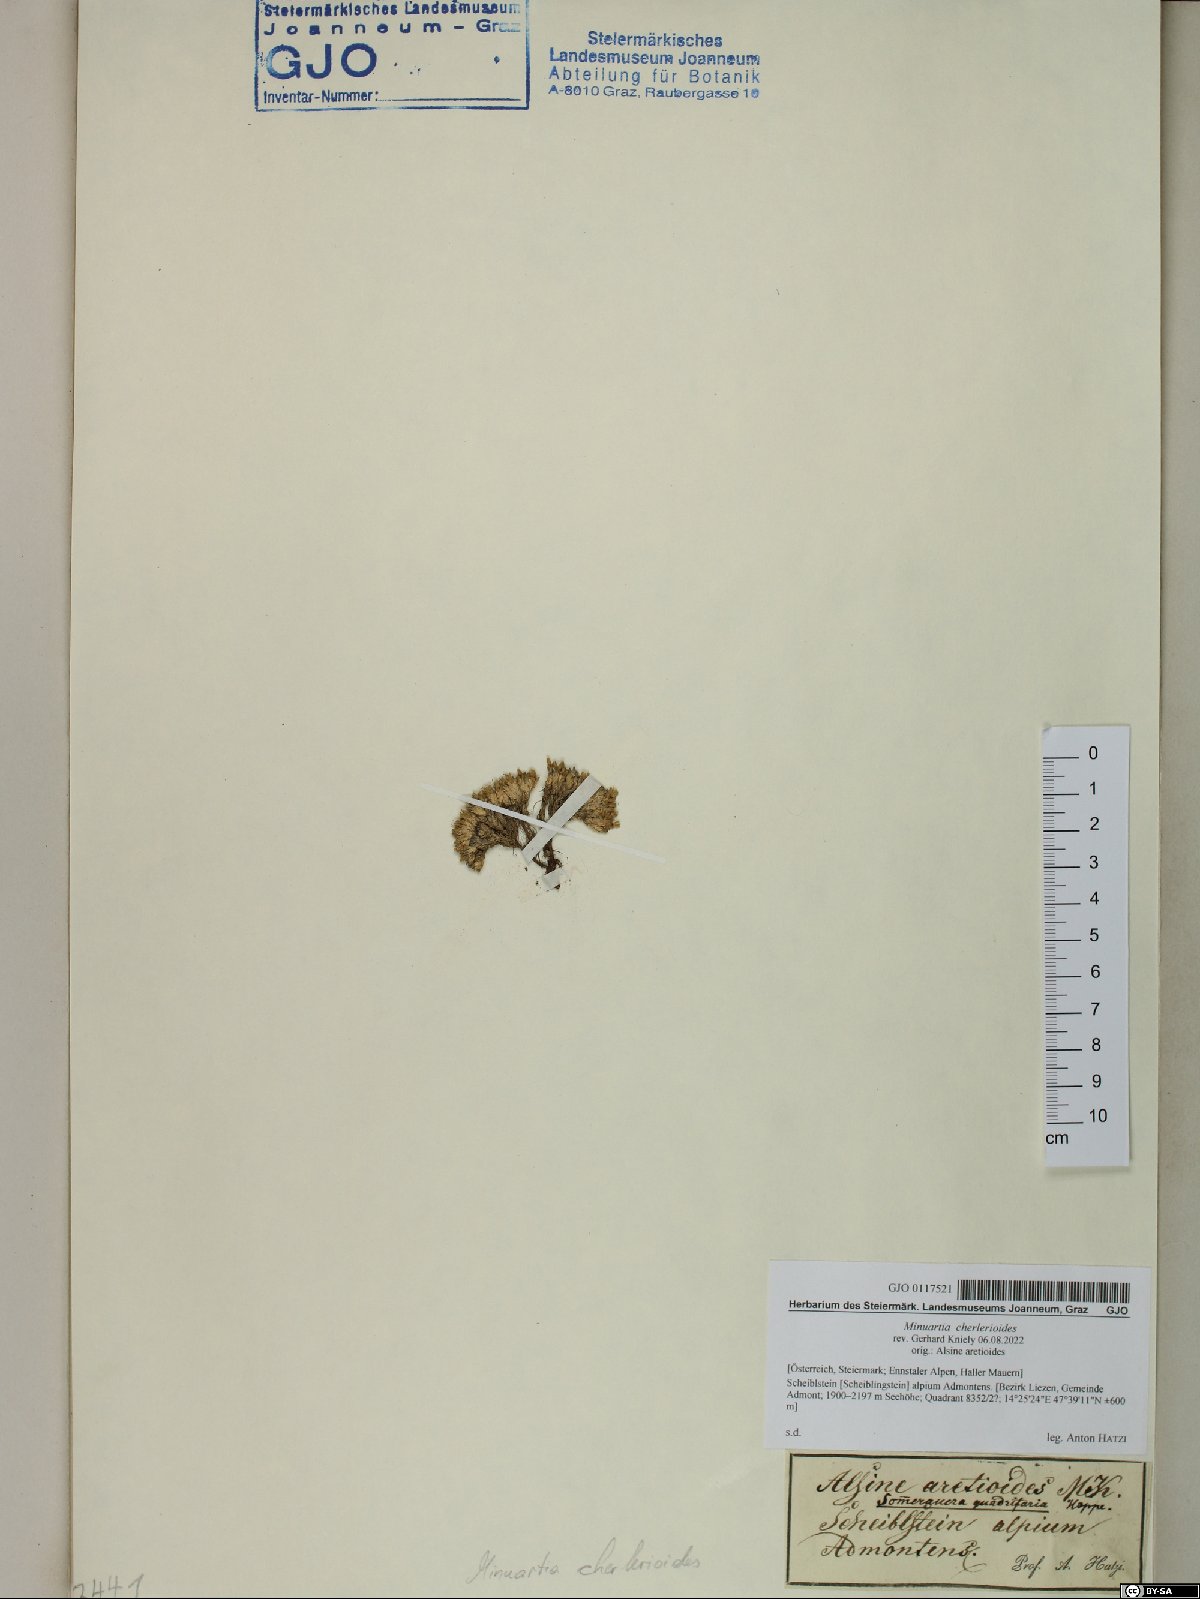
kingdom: Plantae
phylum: Tracheophyta
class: Magnoliopsida
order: Caryophyllales
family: Caryophyllaceae
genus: Facchinia
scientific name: Facchinia cherlerioides
